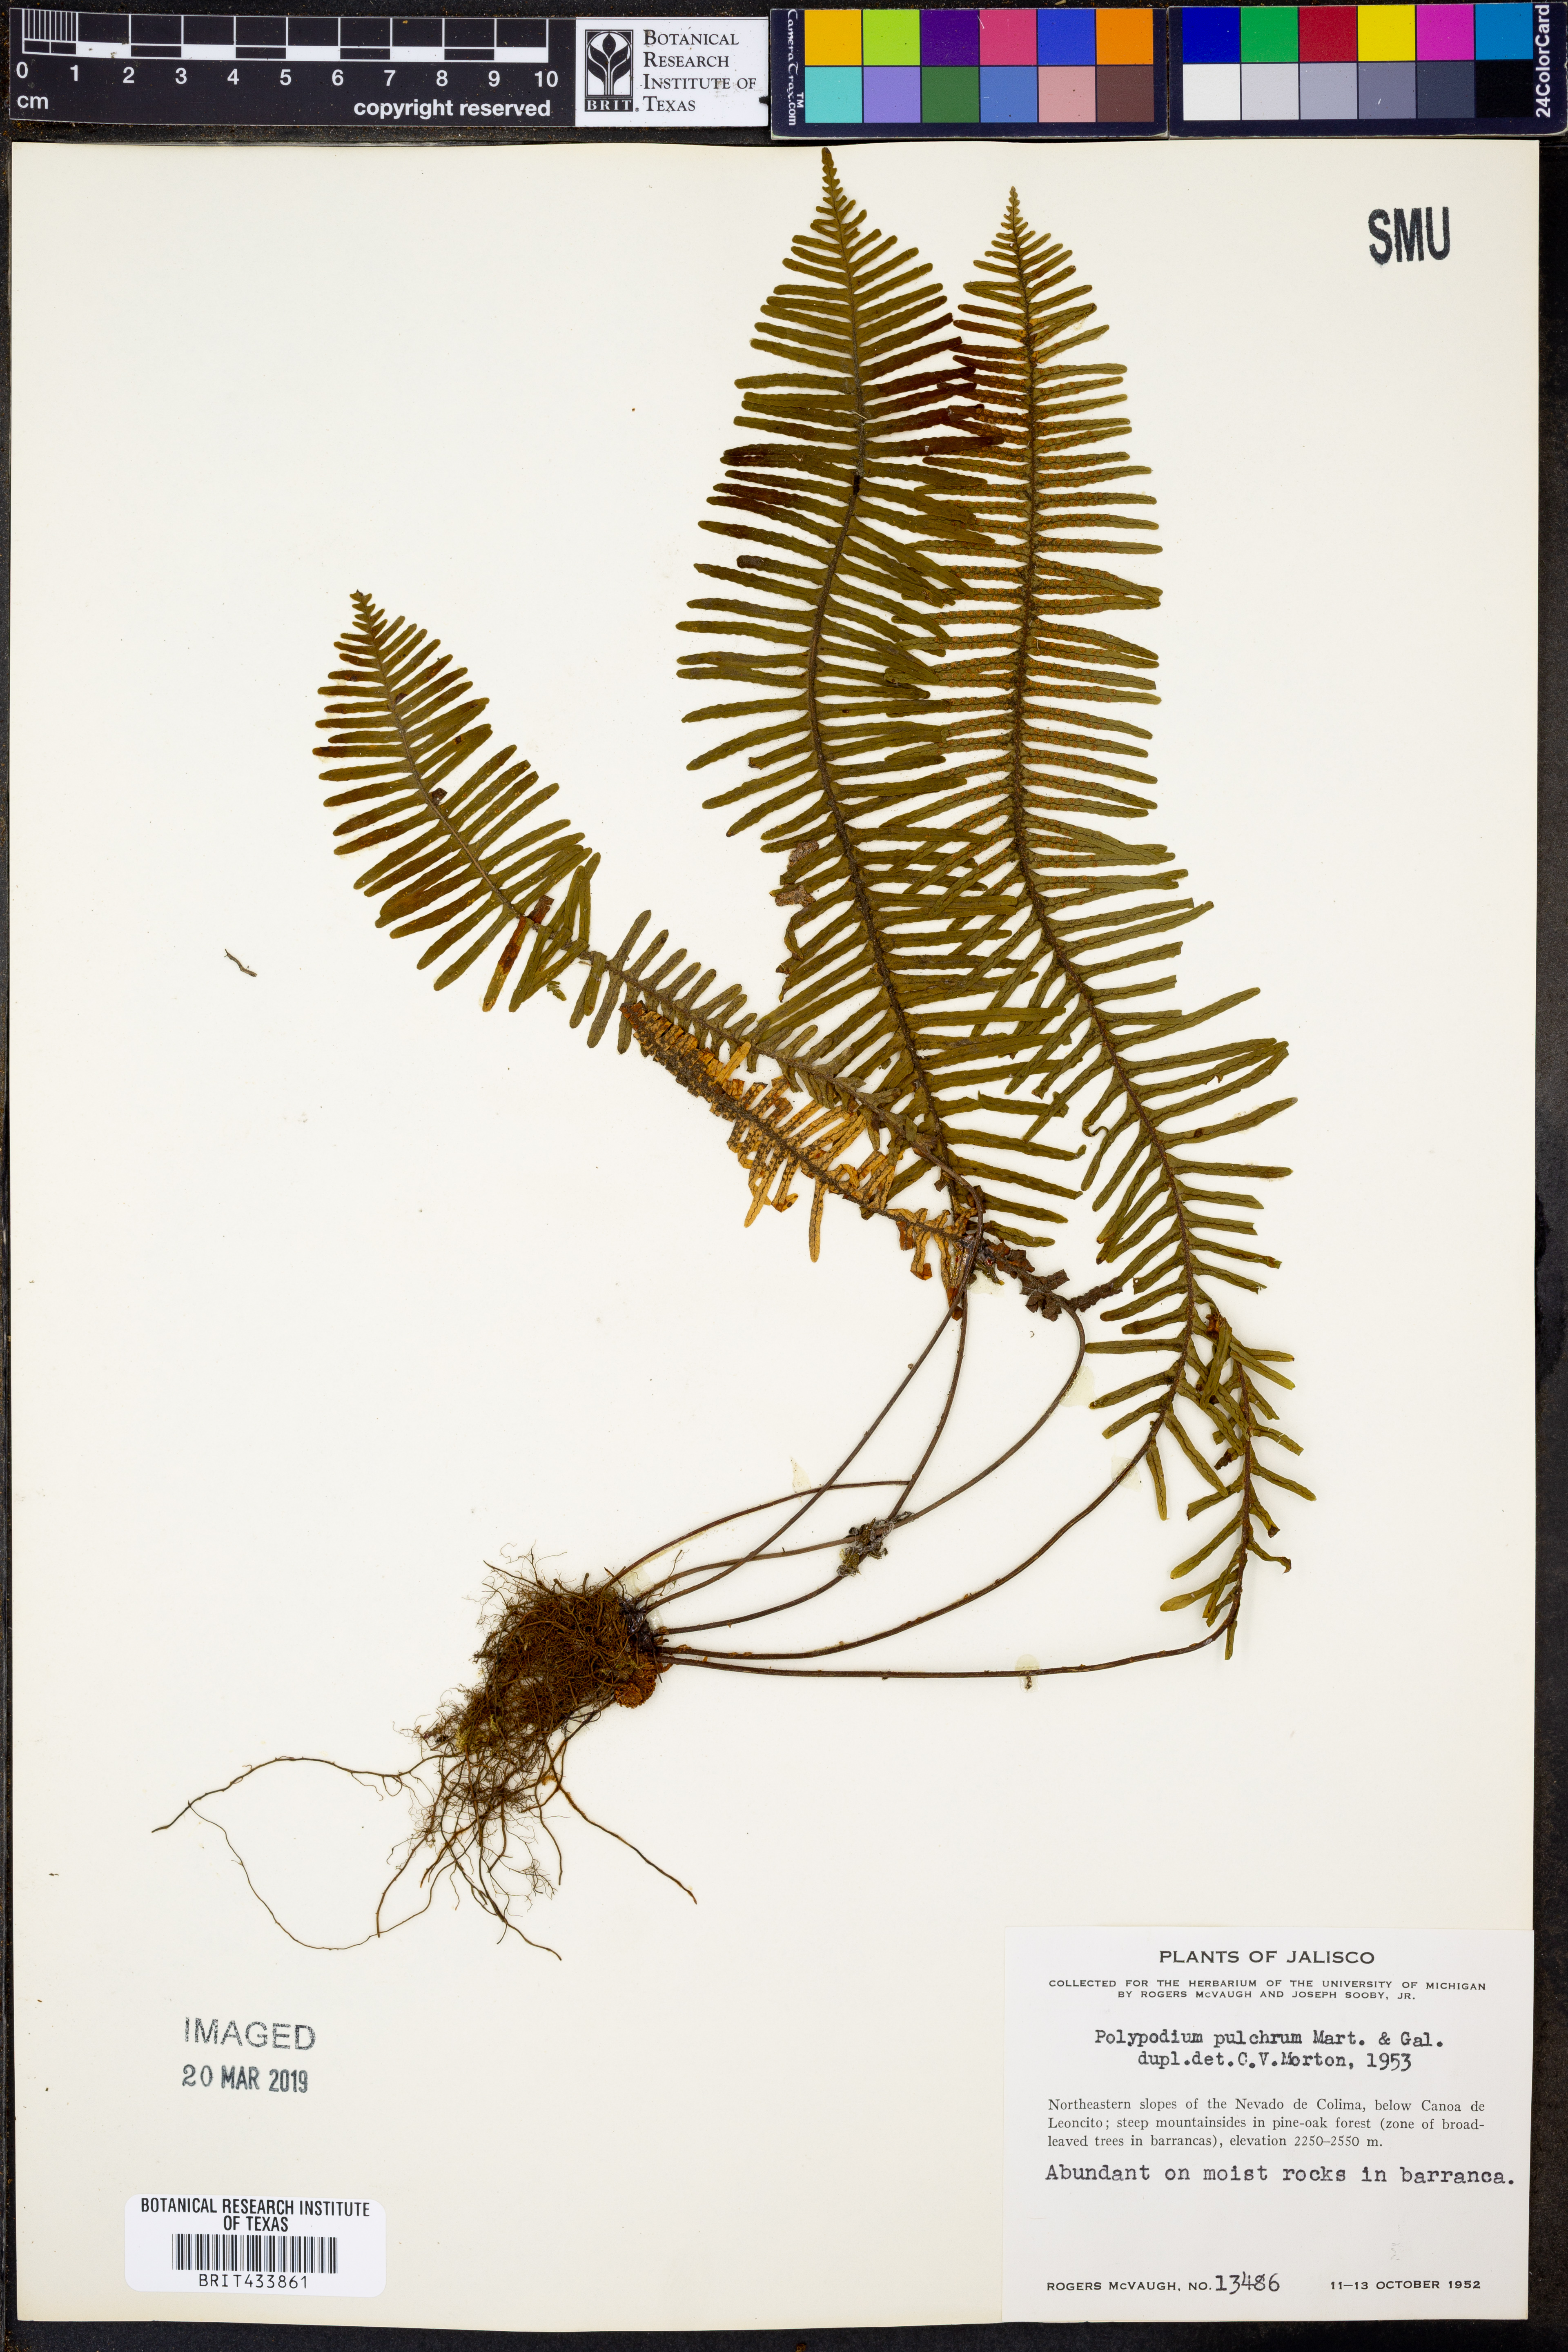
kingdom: Plantae
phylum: Tracheophyta
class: Polypodiopsida
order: Polypodiales
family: Polypodiaceae
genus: Pecluma
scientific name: Pecluma plumula
